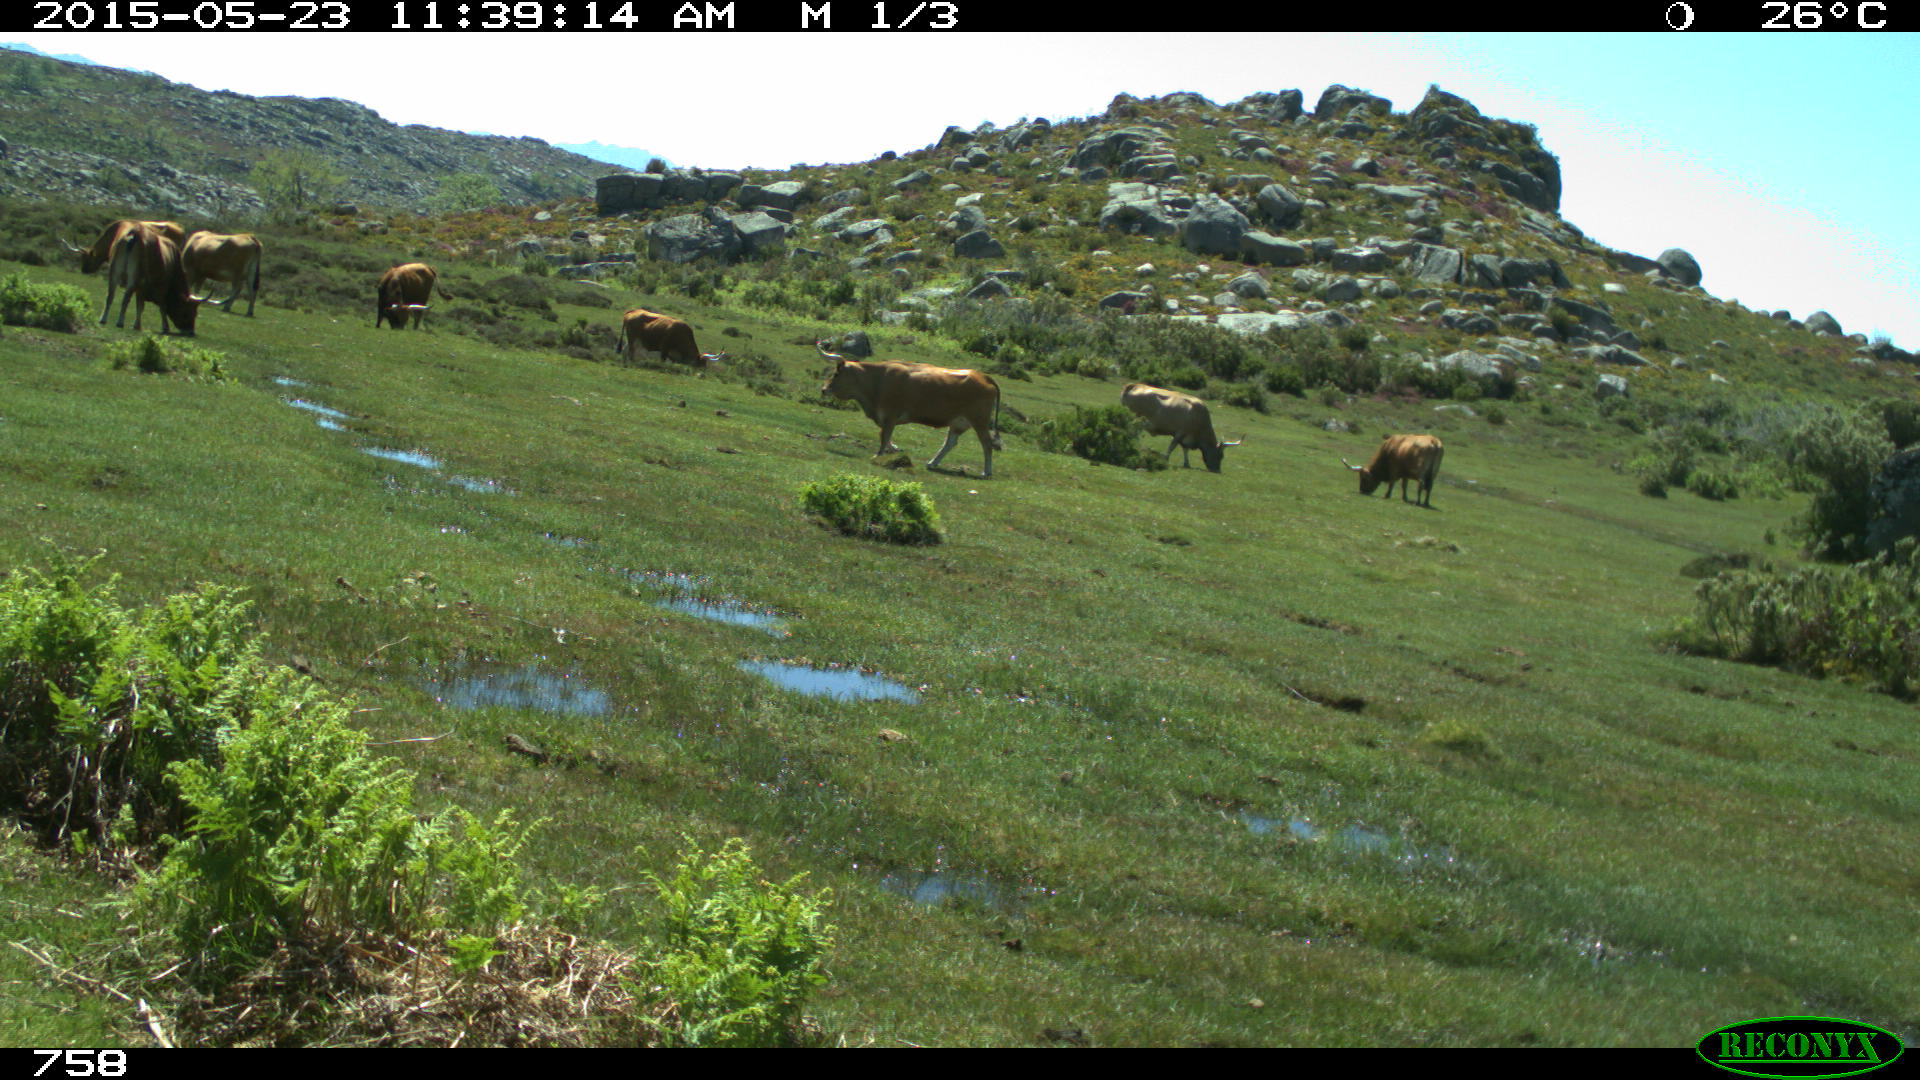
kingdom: Animalia
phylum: Chordata
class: Mammalia
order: Artiodactyla
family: Bovidae
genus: Bos
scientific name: Bos taurus
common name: Domesticated cattle
